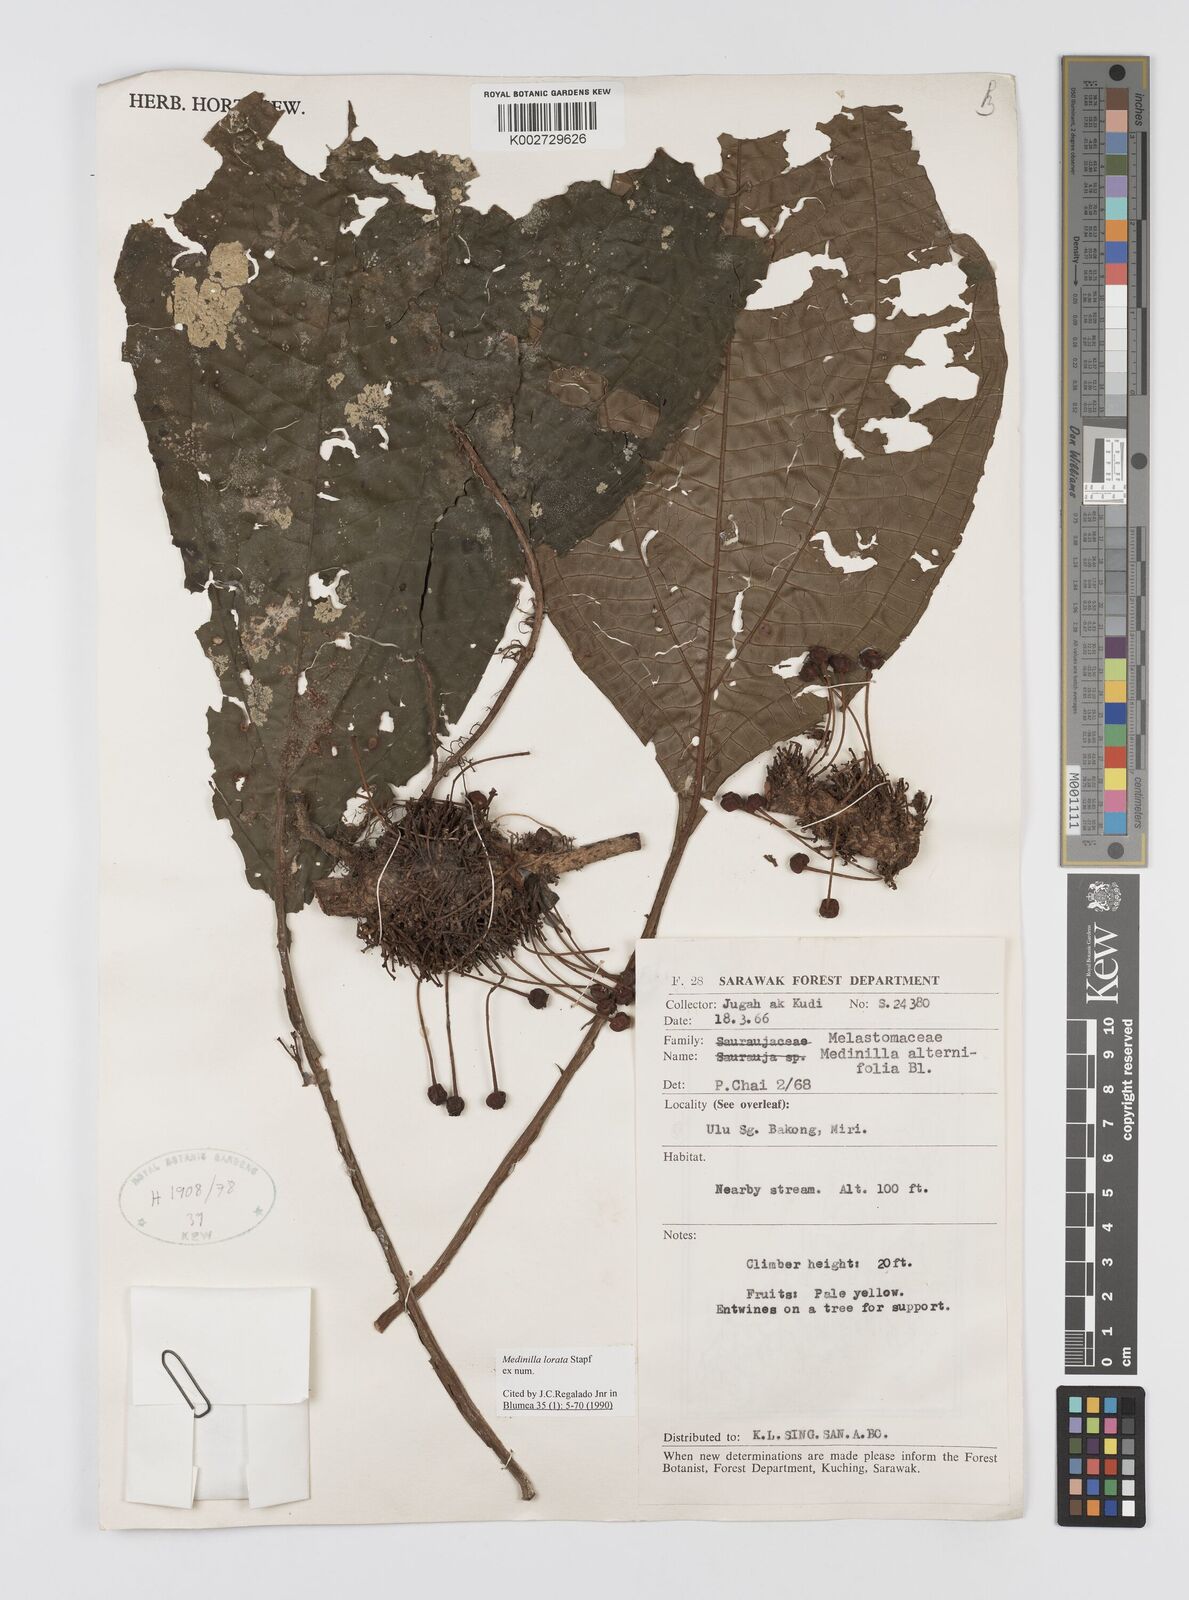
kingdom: Plantae
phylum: Tracheophyta
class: Magnoliopsida
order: Myrtales
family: Melastomataceae
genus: Heteroblemma
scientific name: Heteroblemma decurrens
